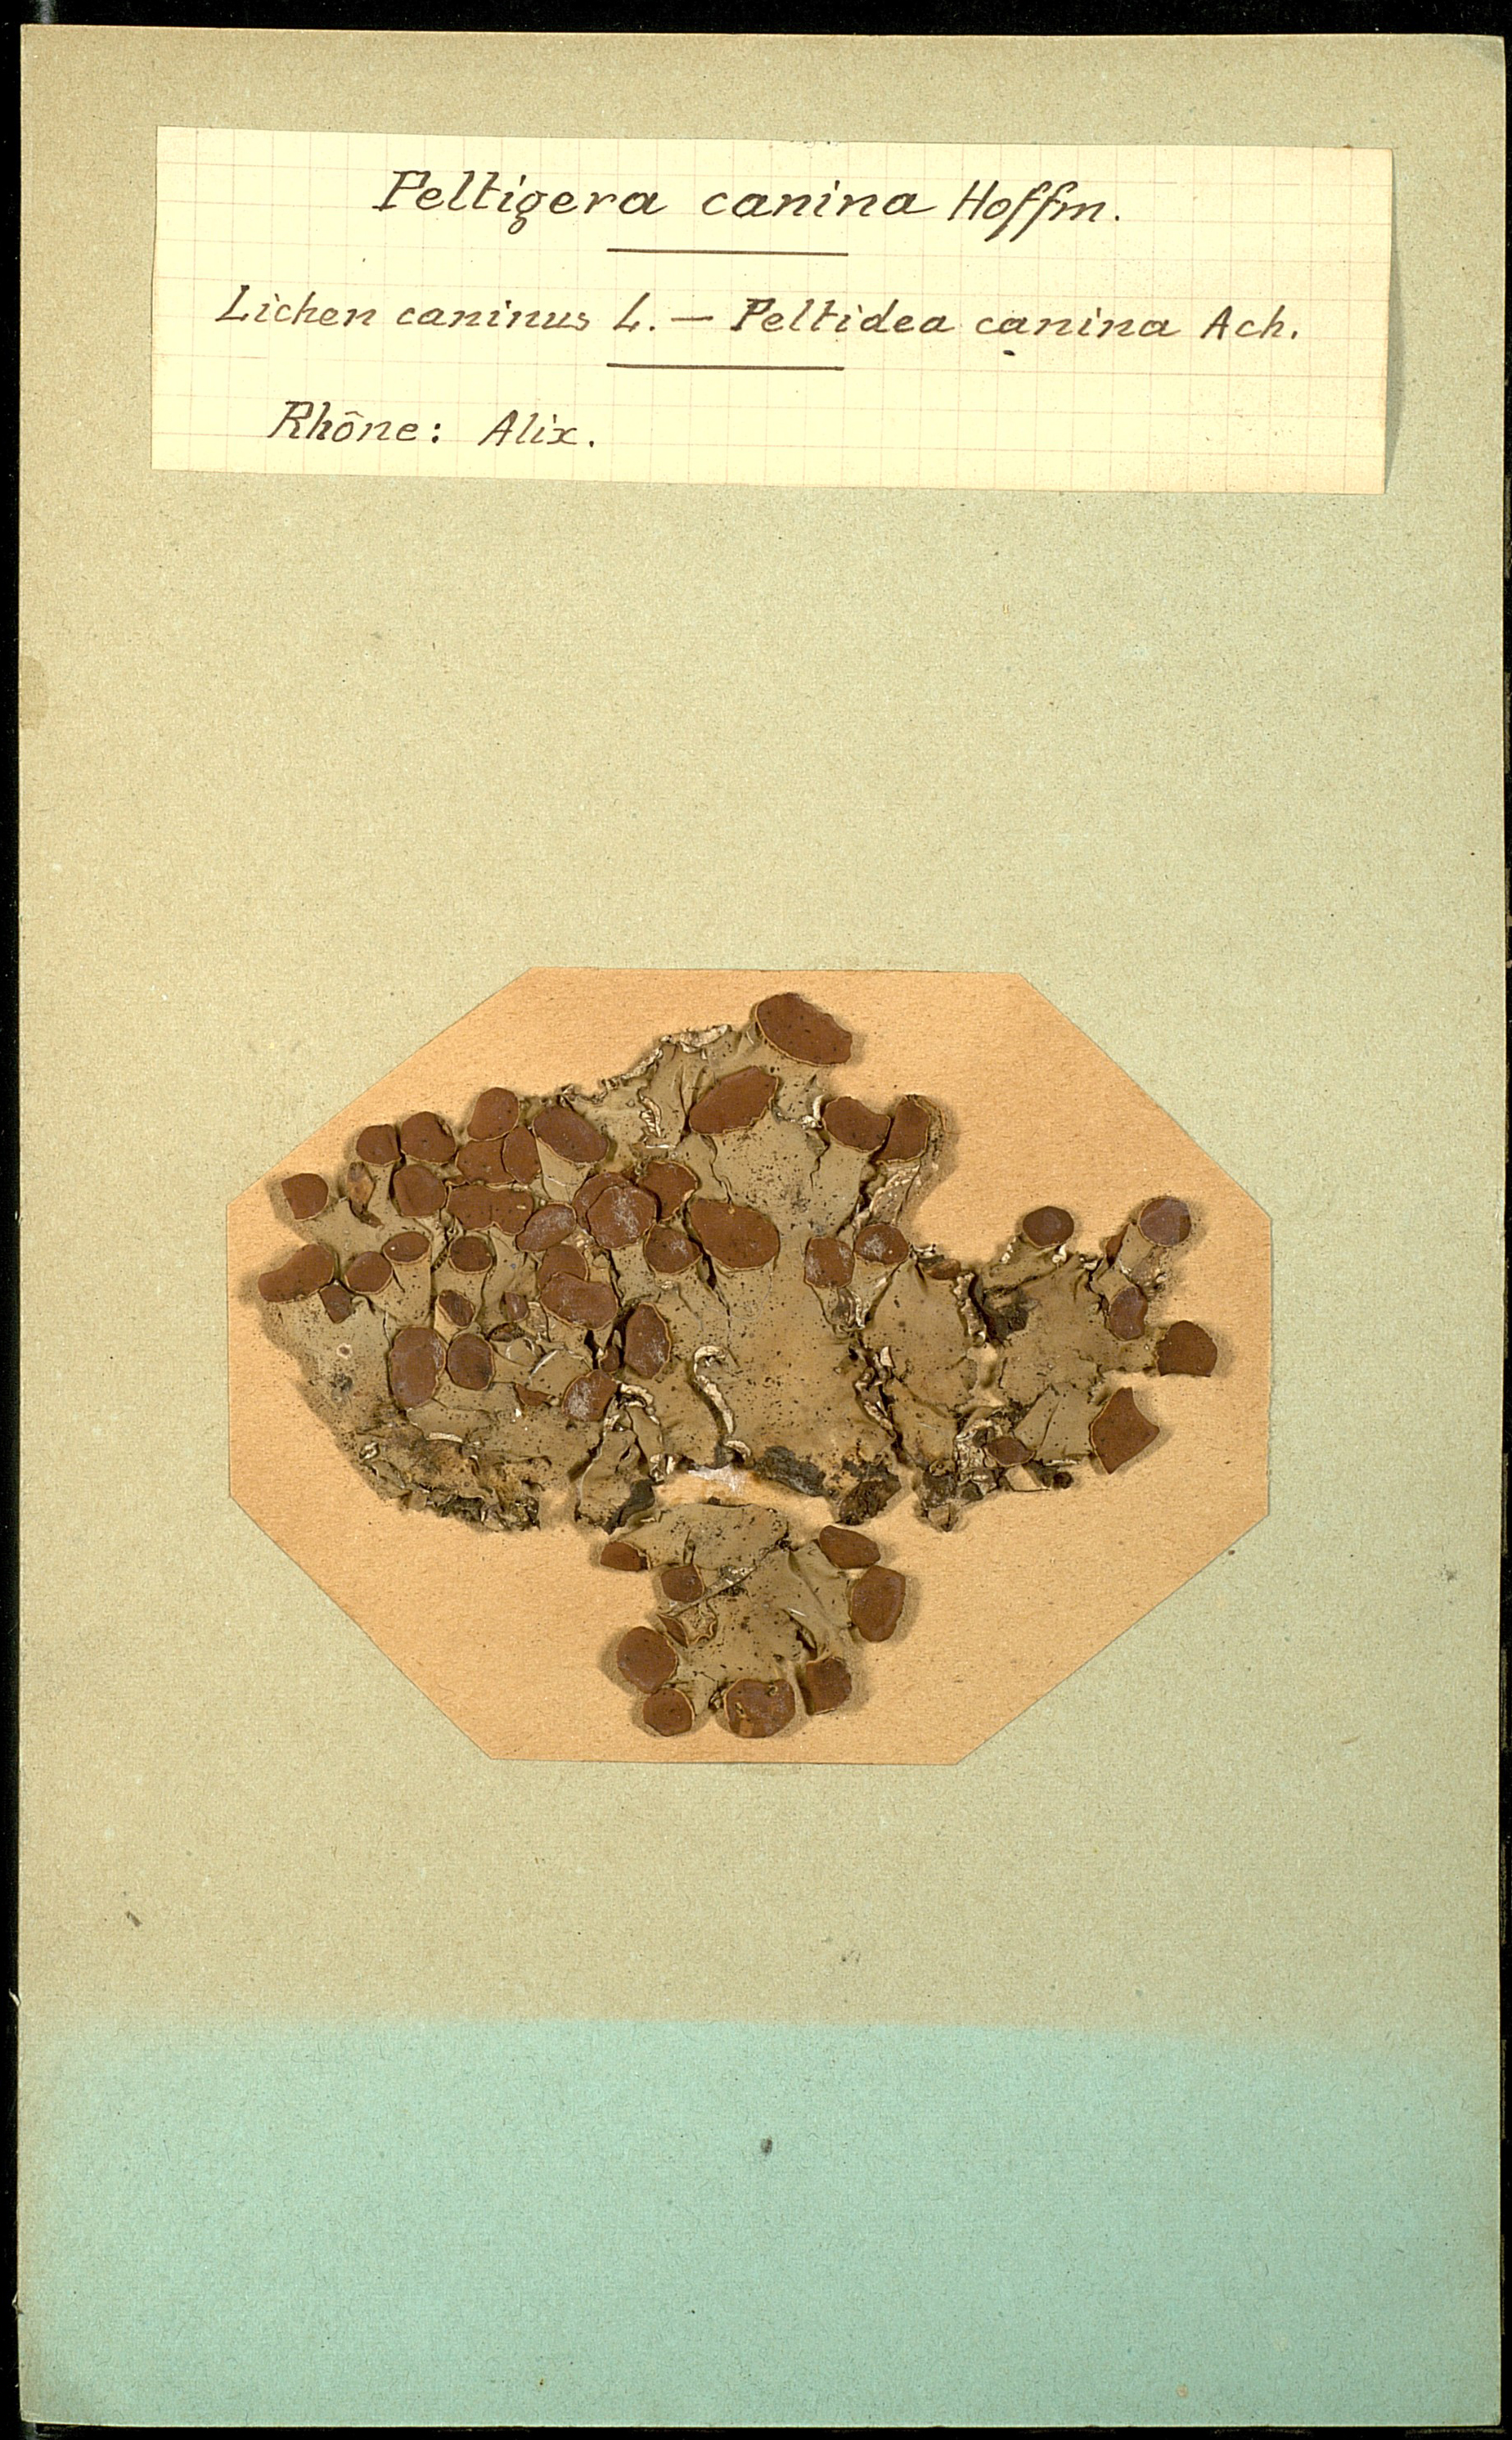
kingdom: Fungi
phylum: Ascomycota
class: Lecanoromycetes
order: Peltigerales
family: Peltigeraceae
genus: Peltigera
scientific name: Peltigera canina
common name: Dog pelt lichen
